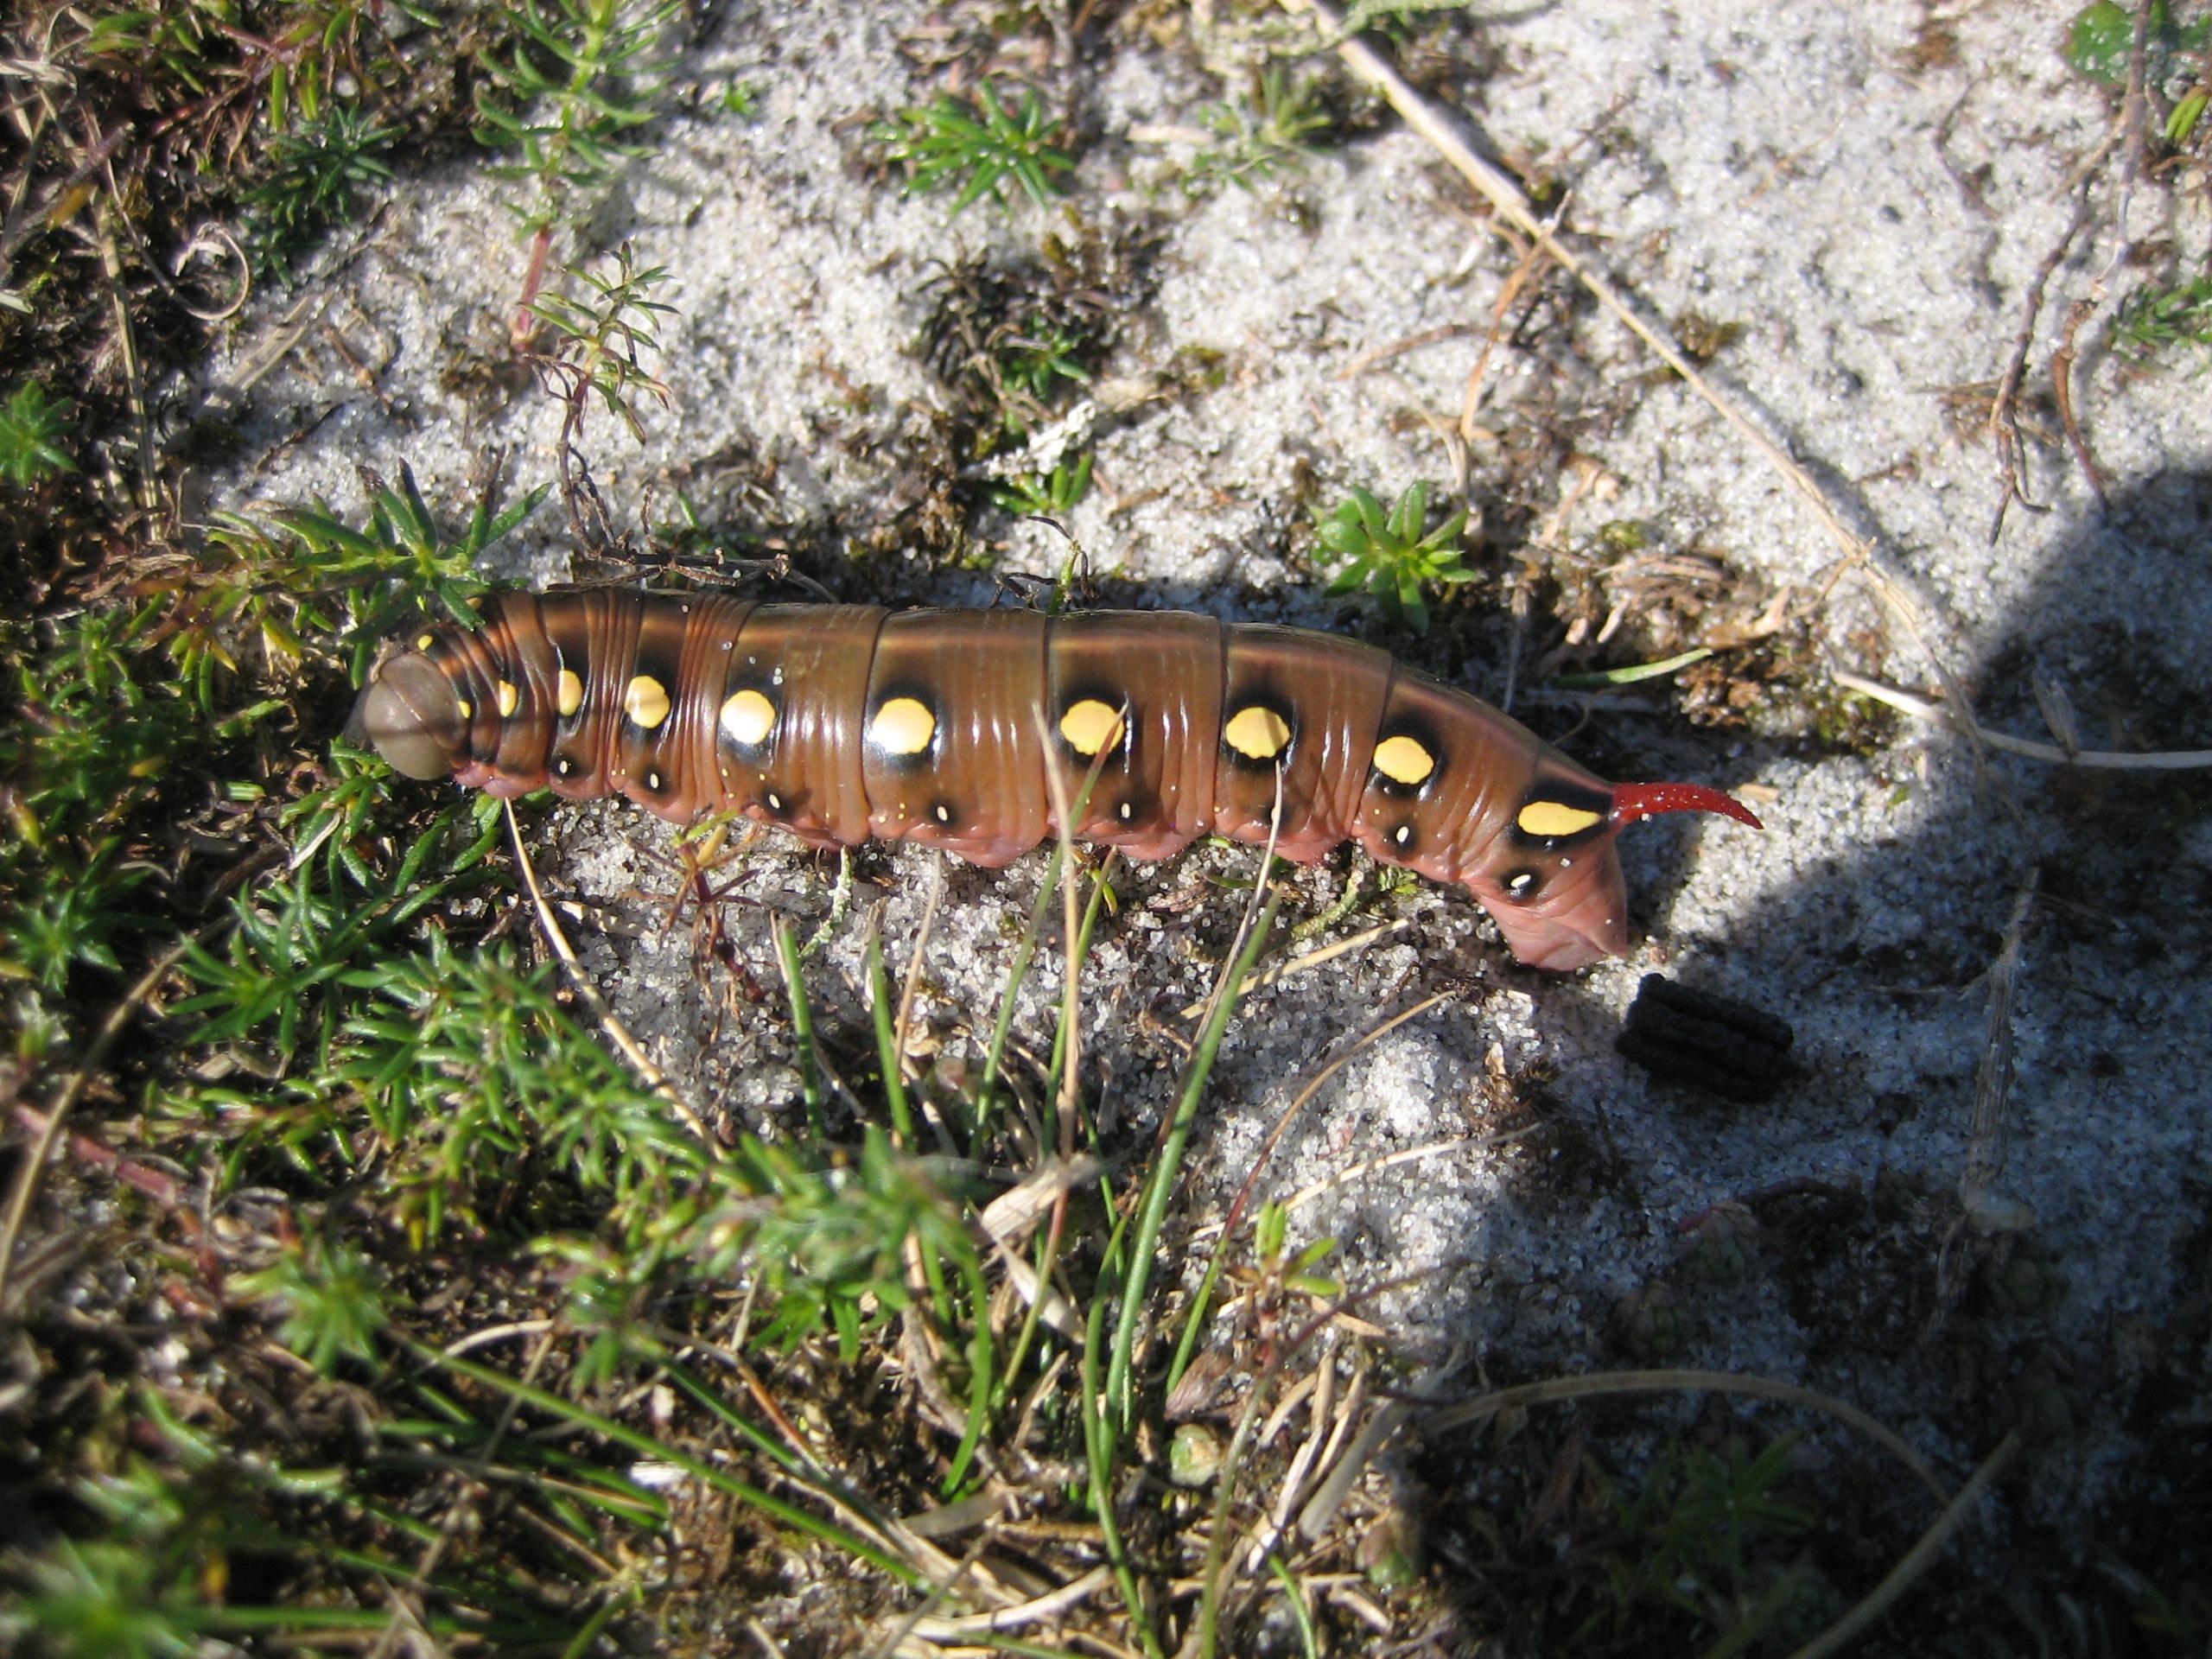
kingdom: Animalia
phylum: Arthropoda
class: Insecta
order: Lepidoptera
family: Sphingidae
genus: Hyles
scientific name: Hyles gallii
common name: Snerresværmer
